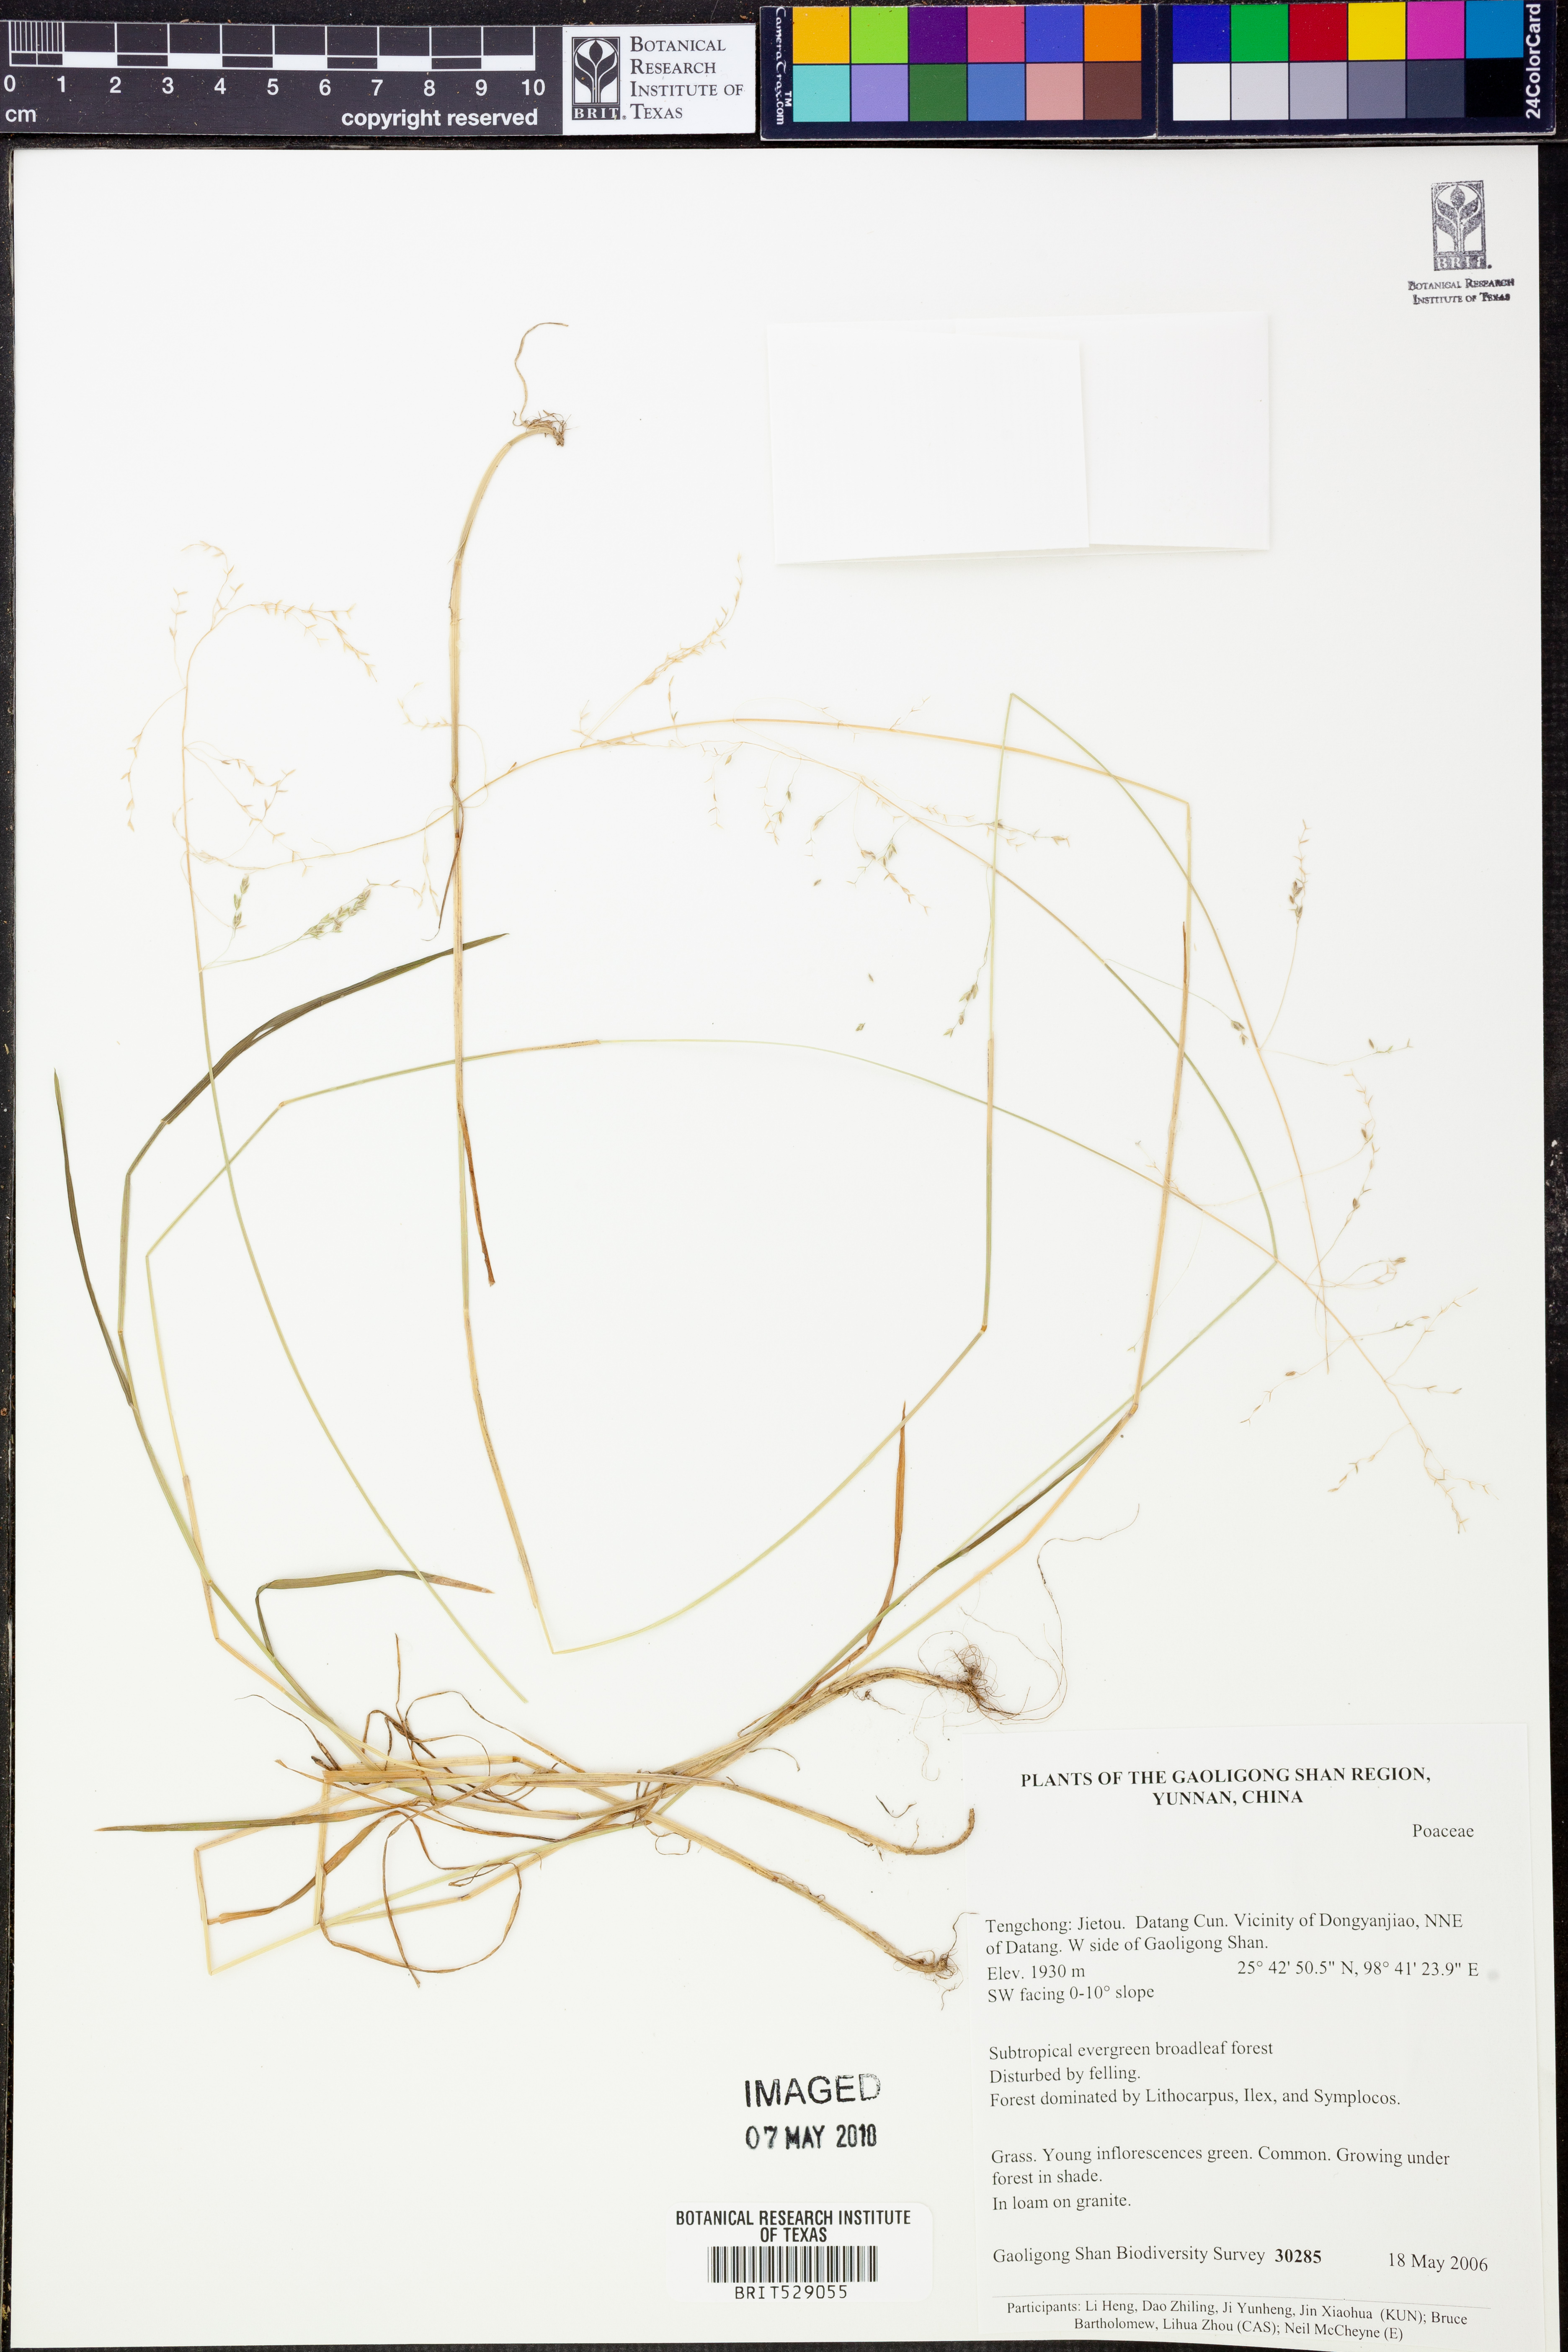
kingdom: Plantae
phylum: Tracheophyta
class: Liliopsida
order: Poales
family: Poaceae
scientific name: Poaceae
